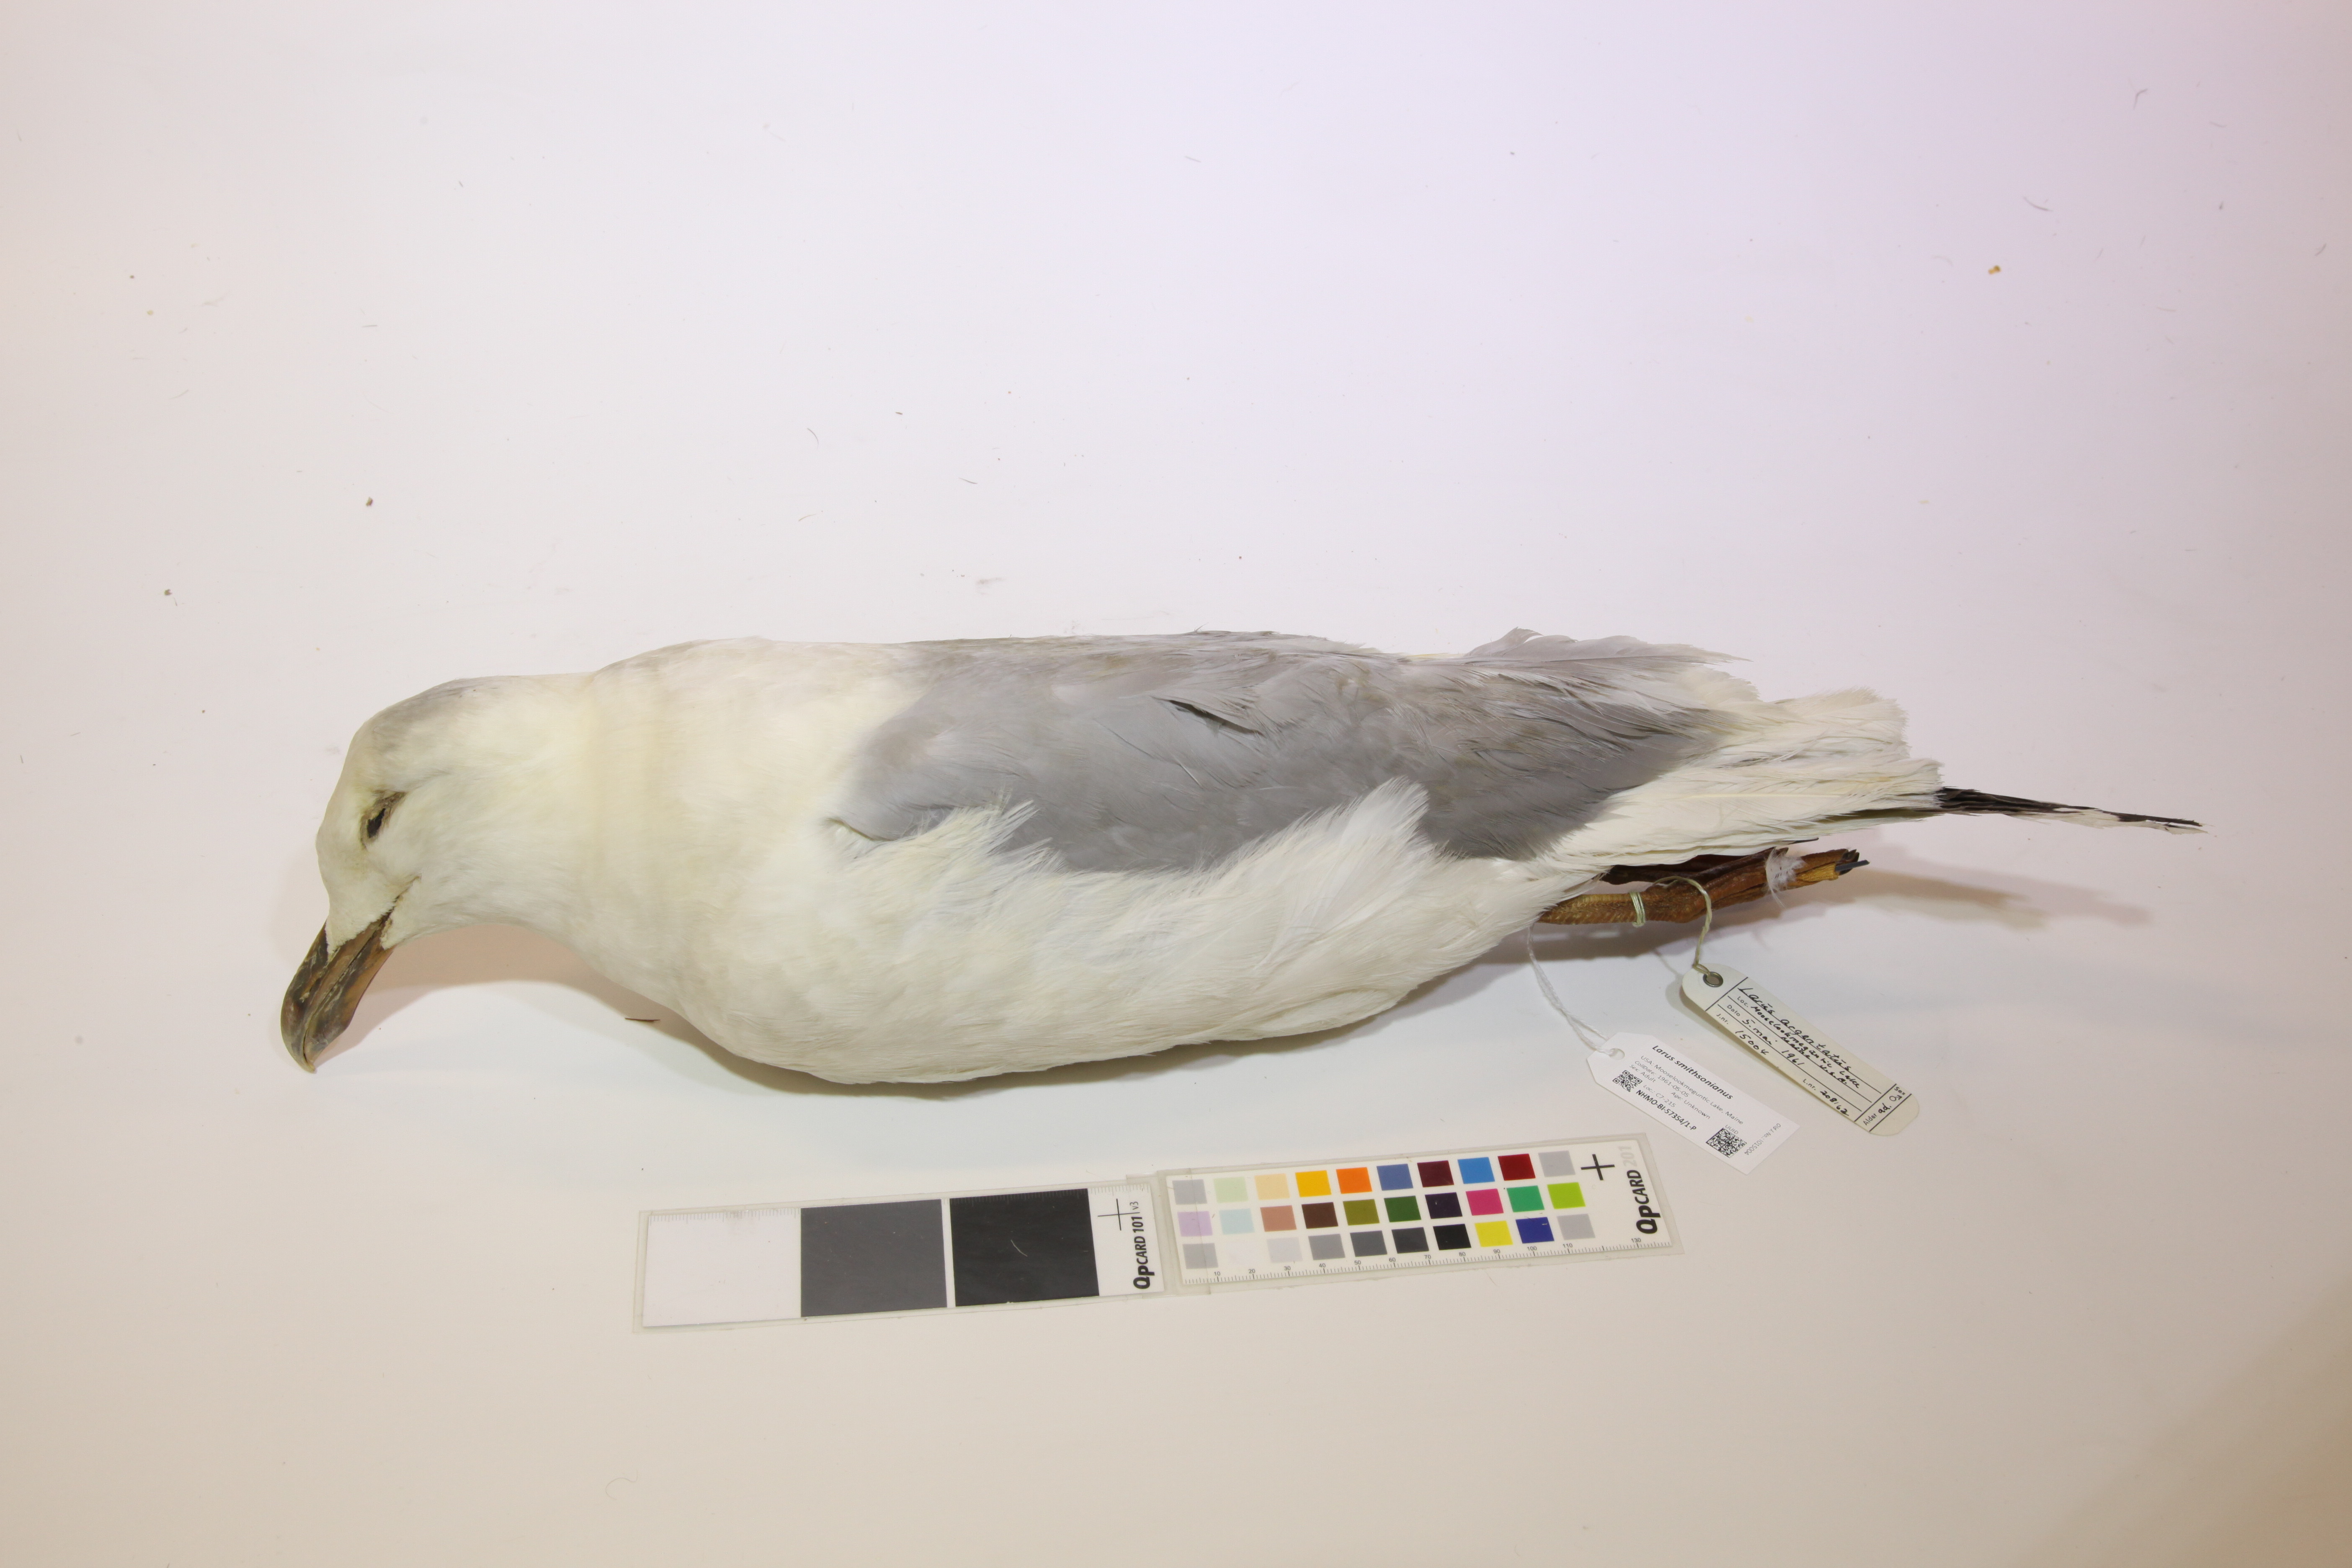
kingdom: Animalia
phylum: Chordata
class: Aves
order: Charadriiformes
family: Laridae
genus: Larus
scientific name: Larus smithsonianus
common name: American herring gull
